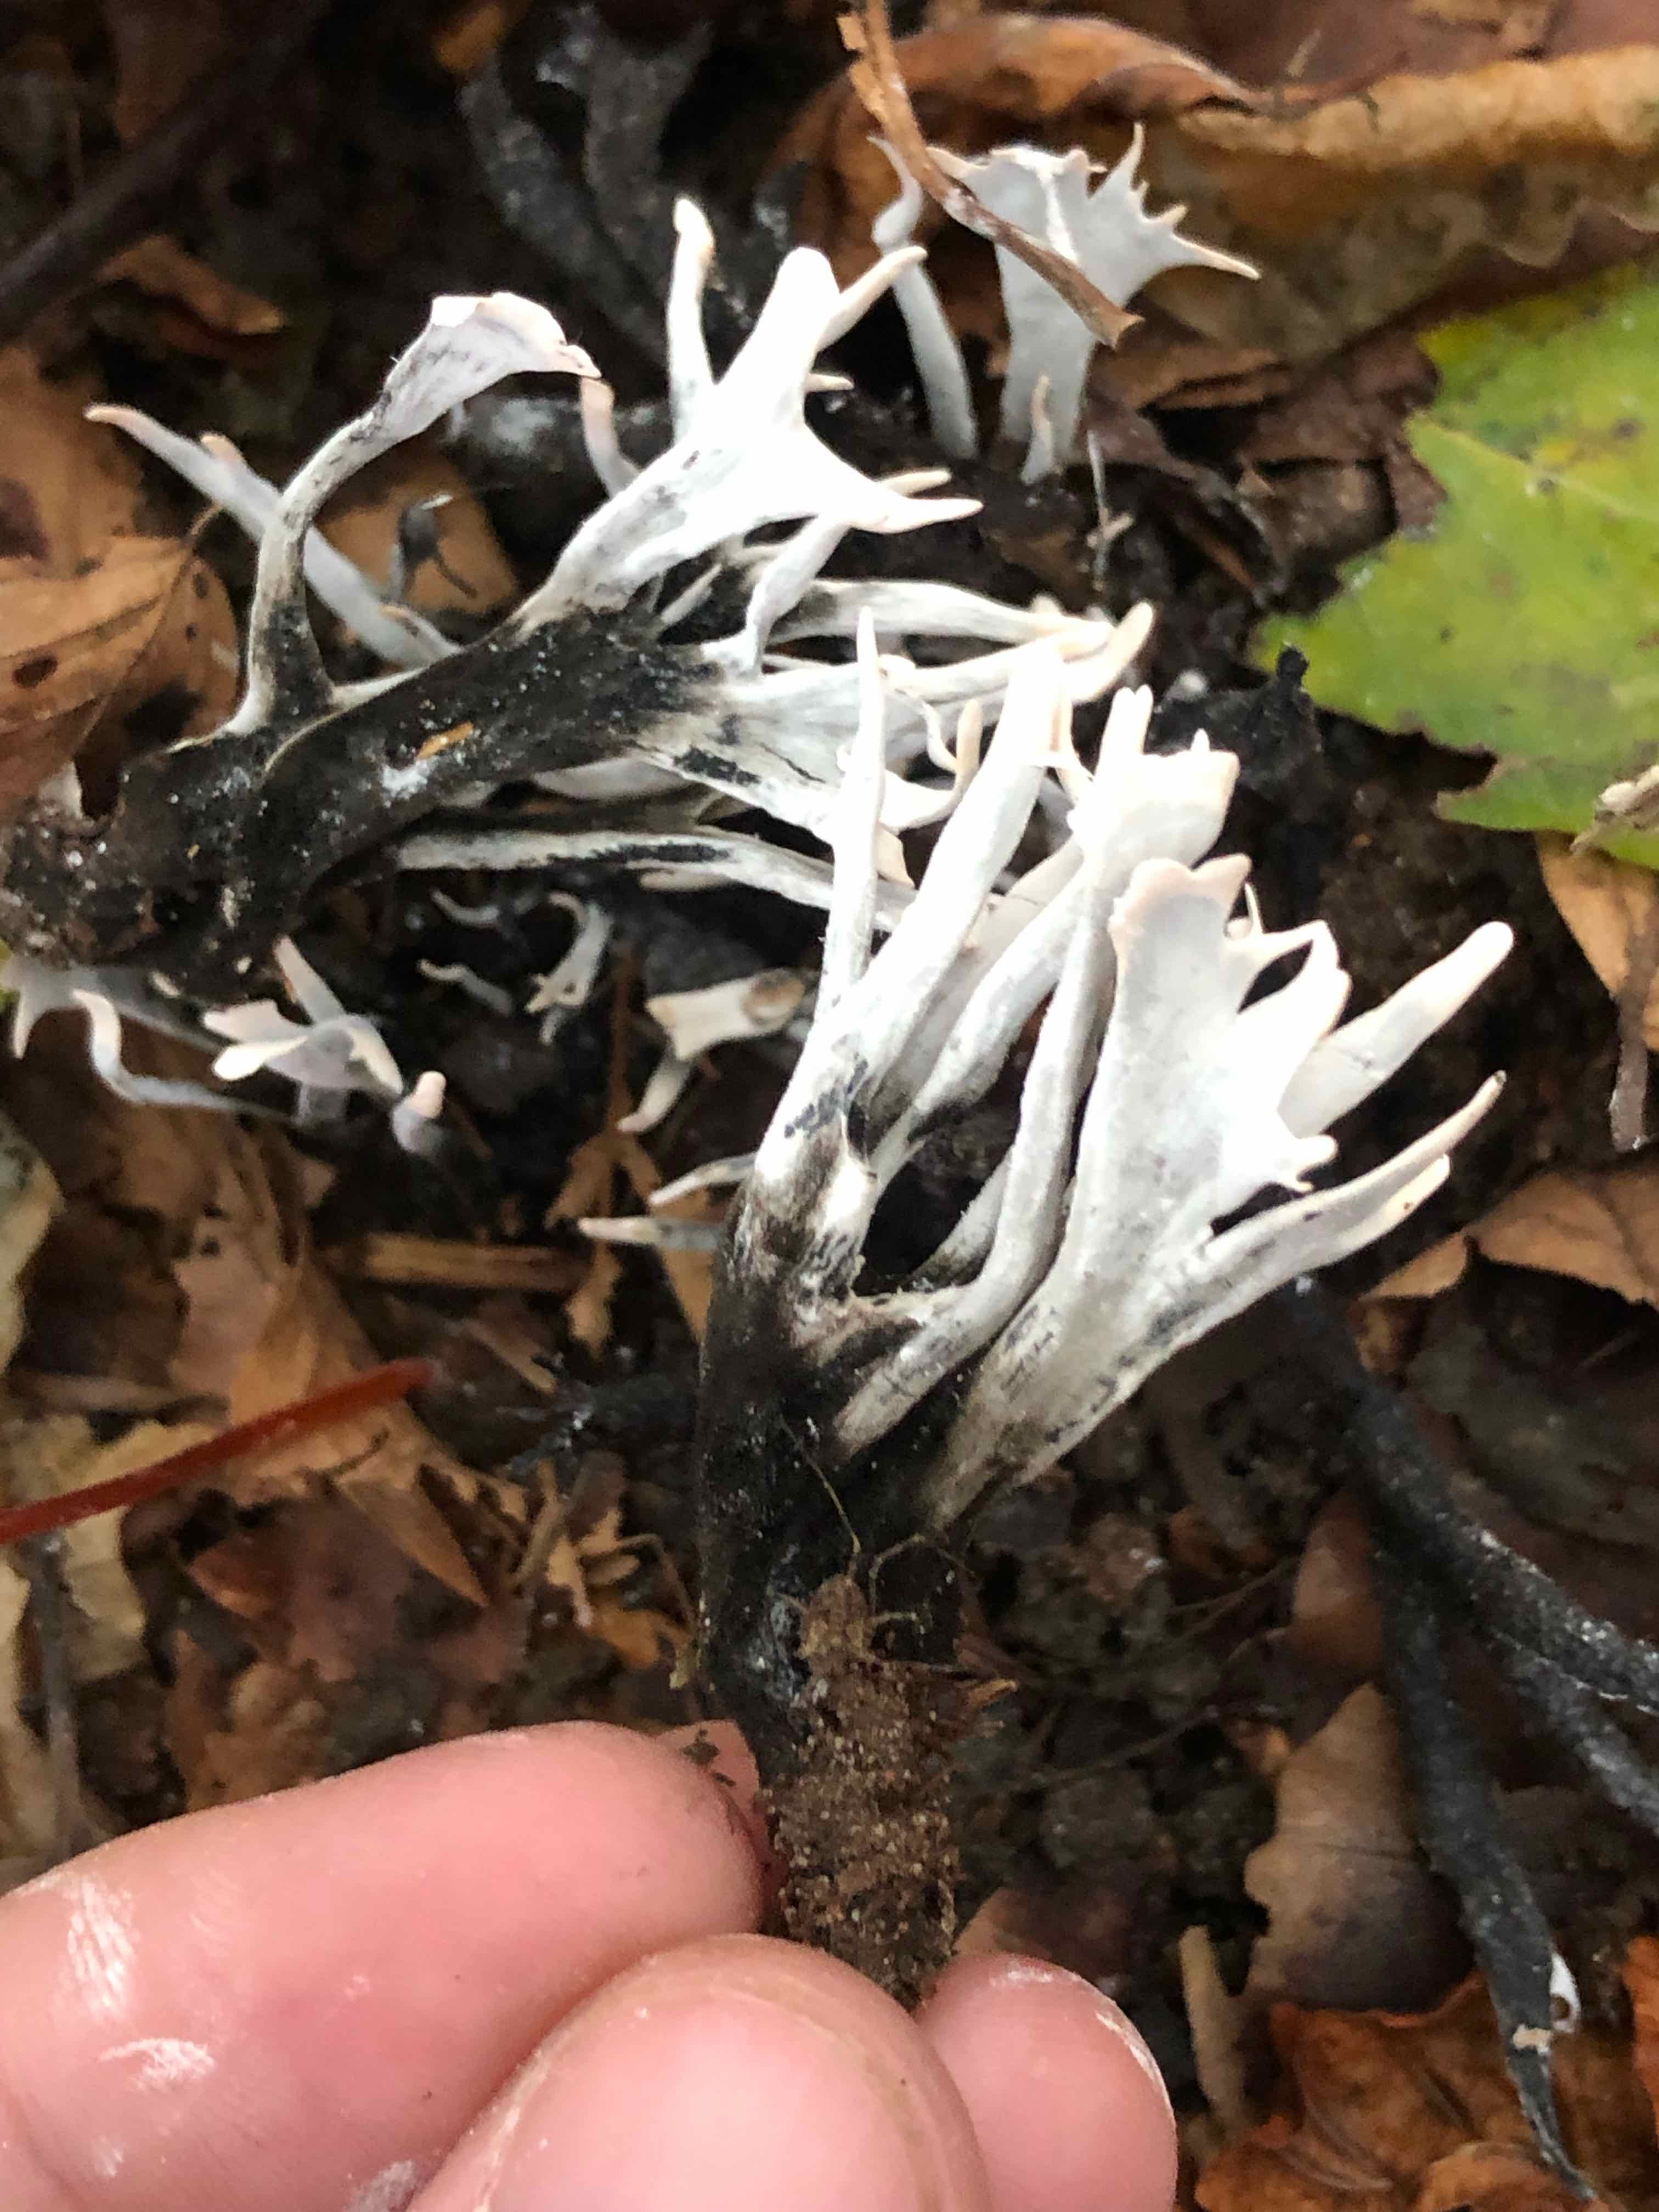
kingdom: Fungi
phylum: Ascomycota
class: Sordariomycetes
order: Xylariales
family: Xylariaceae
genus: Xylaria
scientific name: Xylaria hypoxylon
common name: grenet stødsvamp
